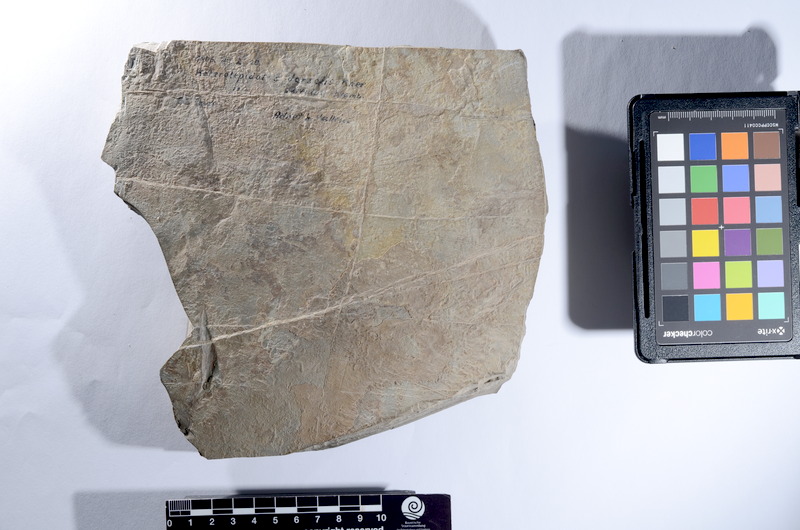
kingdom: Animalia
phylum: Chordata
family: Callipurbeckiidae
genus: Paralepidotus
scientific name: Paralepidotus Lepidotes ornatus
